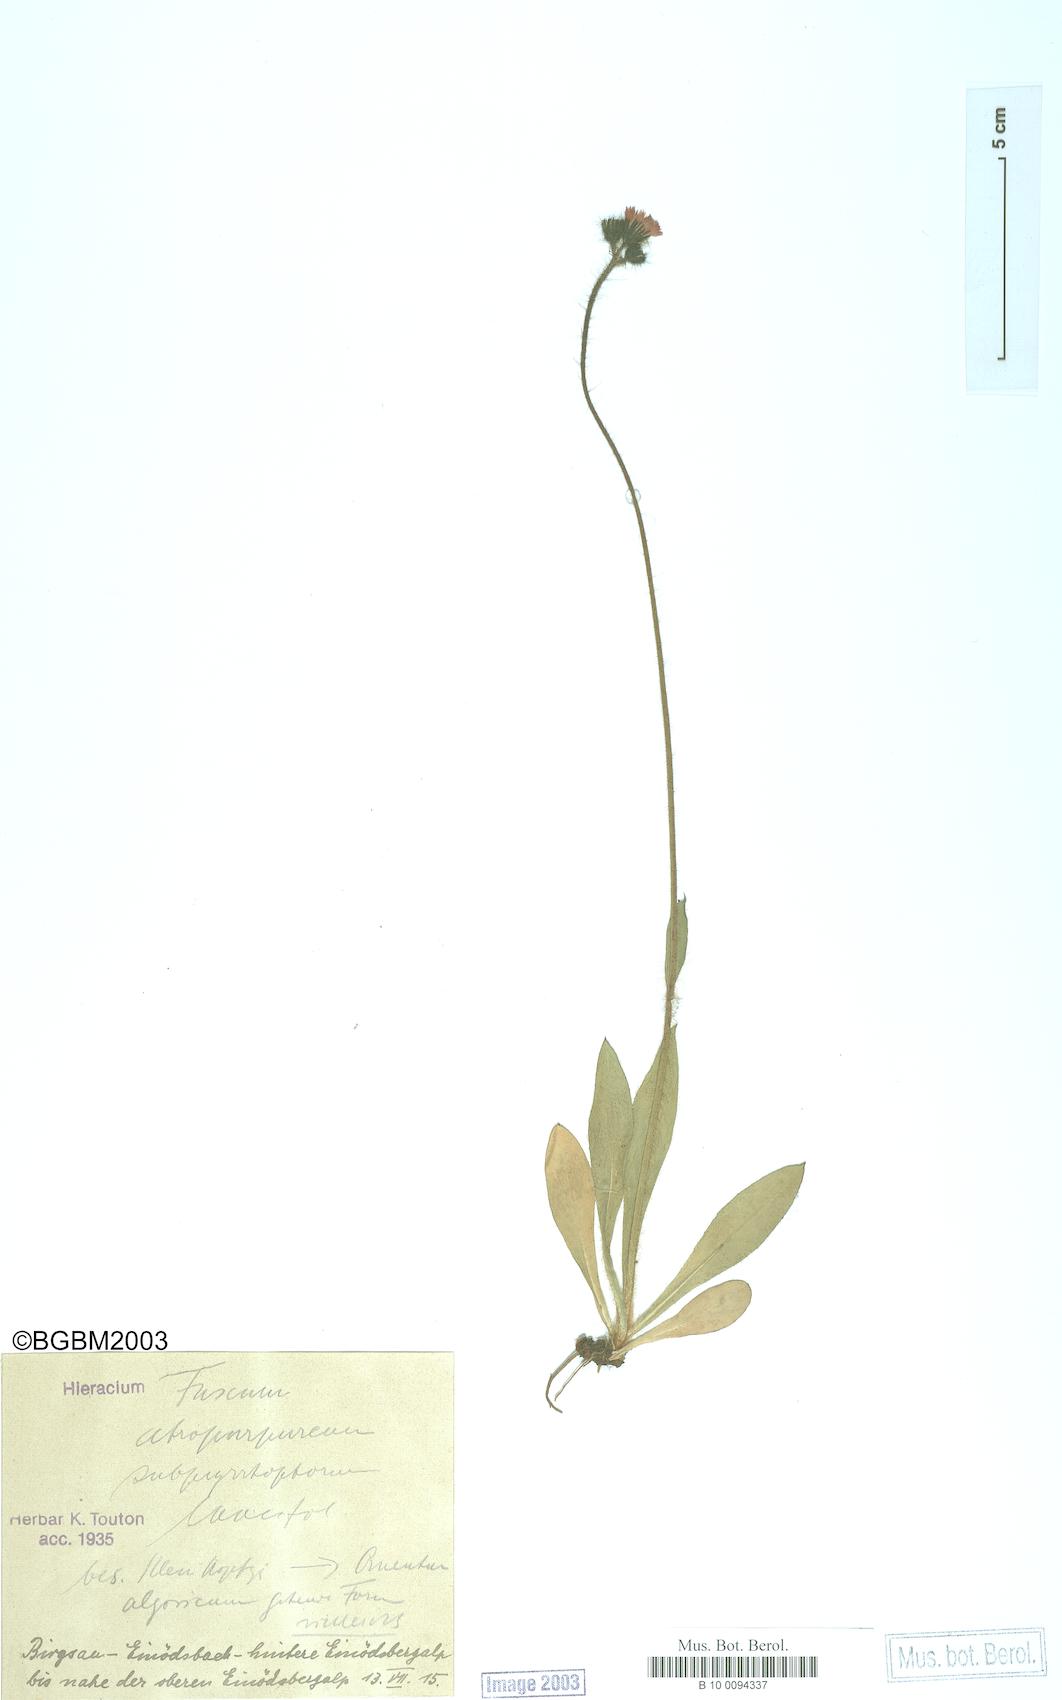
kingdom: Plantae
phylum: Tracheophyta
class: Magnoliopsida
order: Asterales
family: Asteraceae
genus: Hieracium
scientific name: Hieracium fuscum
